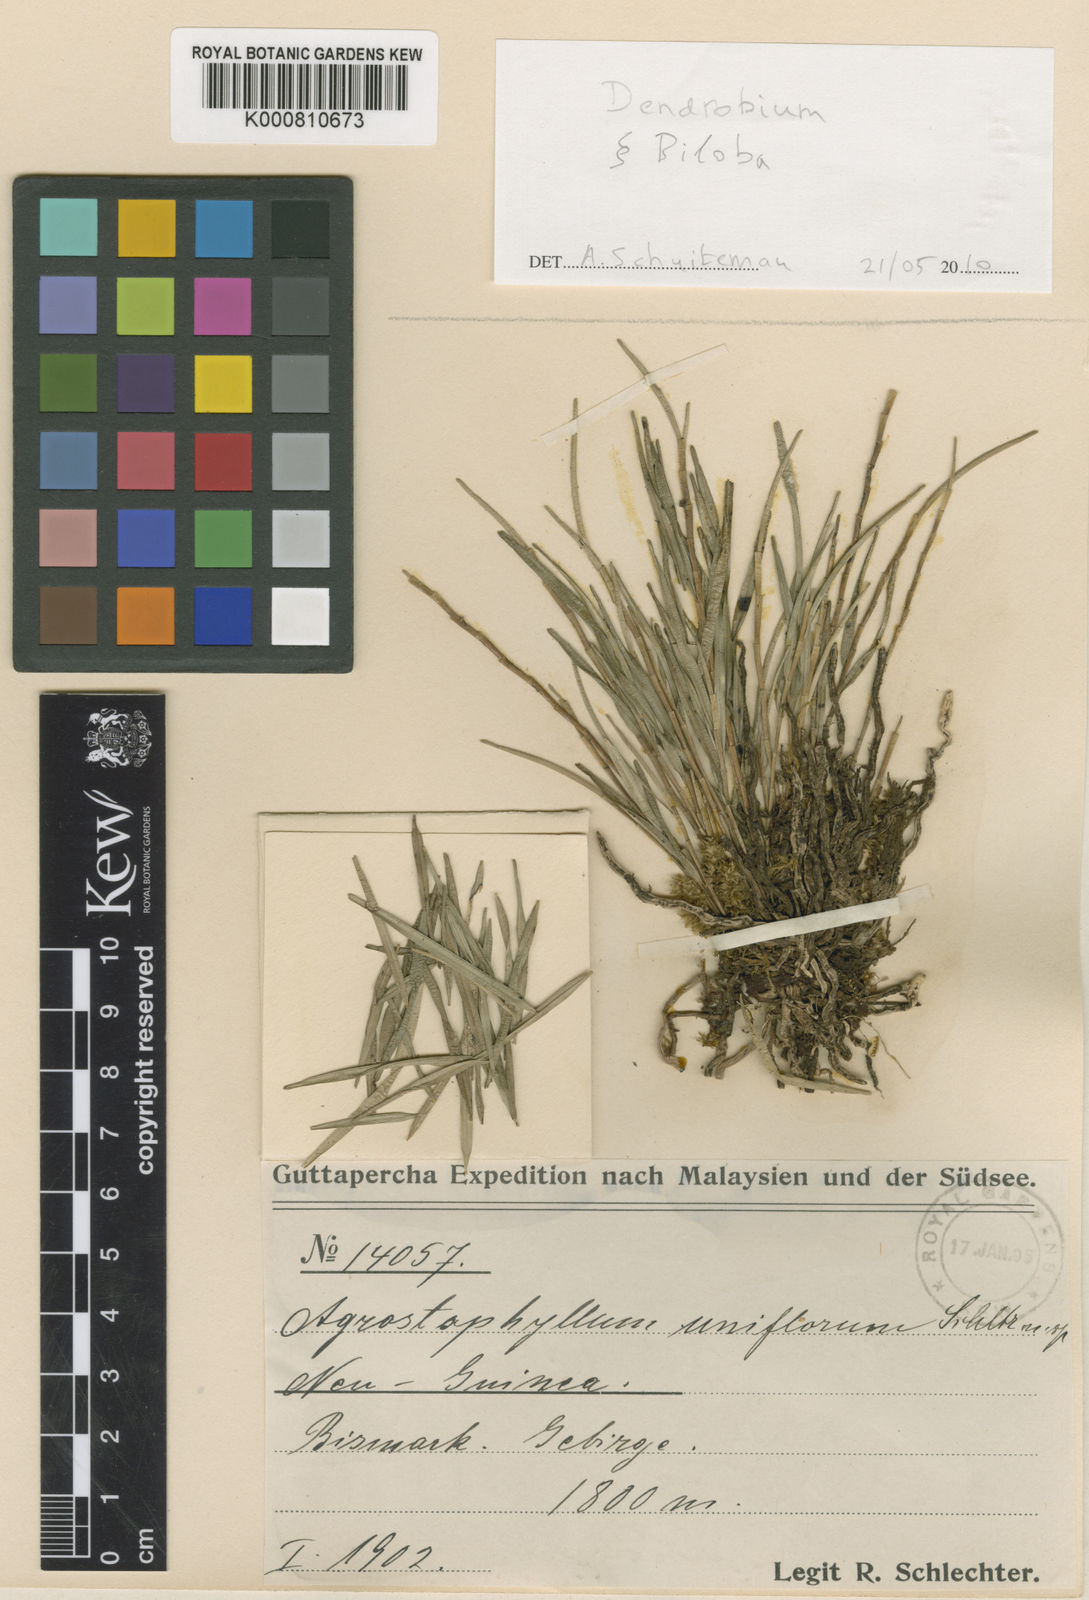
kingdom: Plantae
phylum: Tracheophyta
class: Liliopsida
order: Asparagales
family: Orchidaceae
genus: Agrostophyllum
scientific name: Agrostophyllum uniflorum
